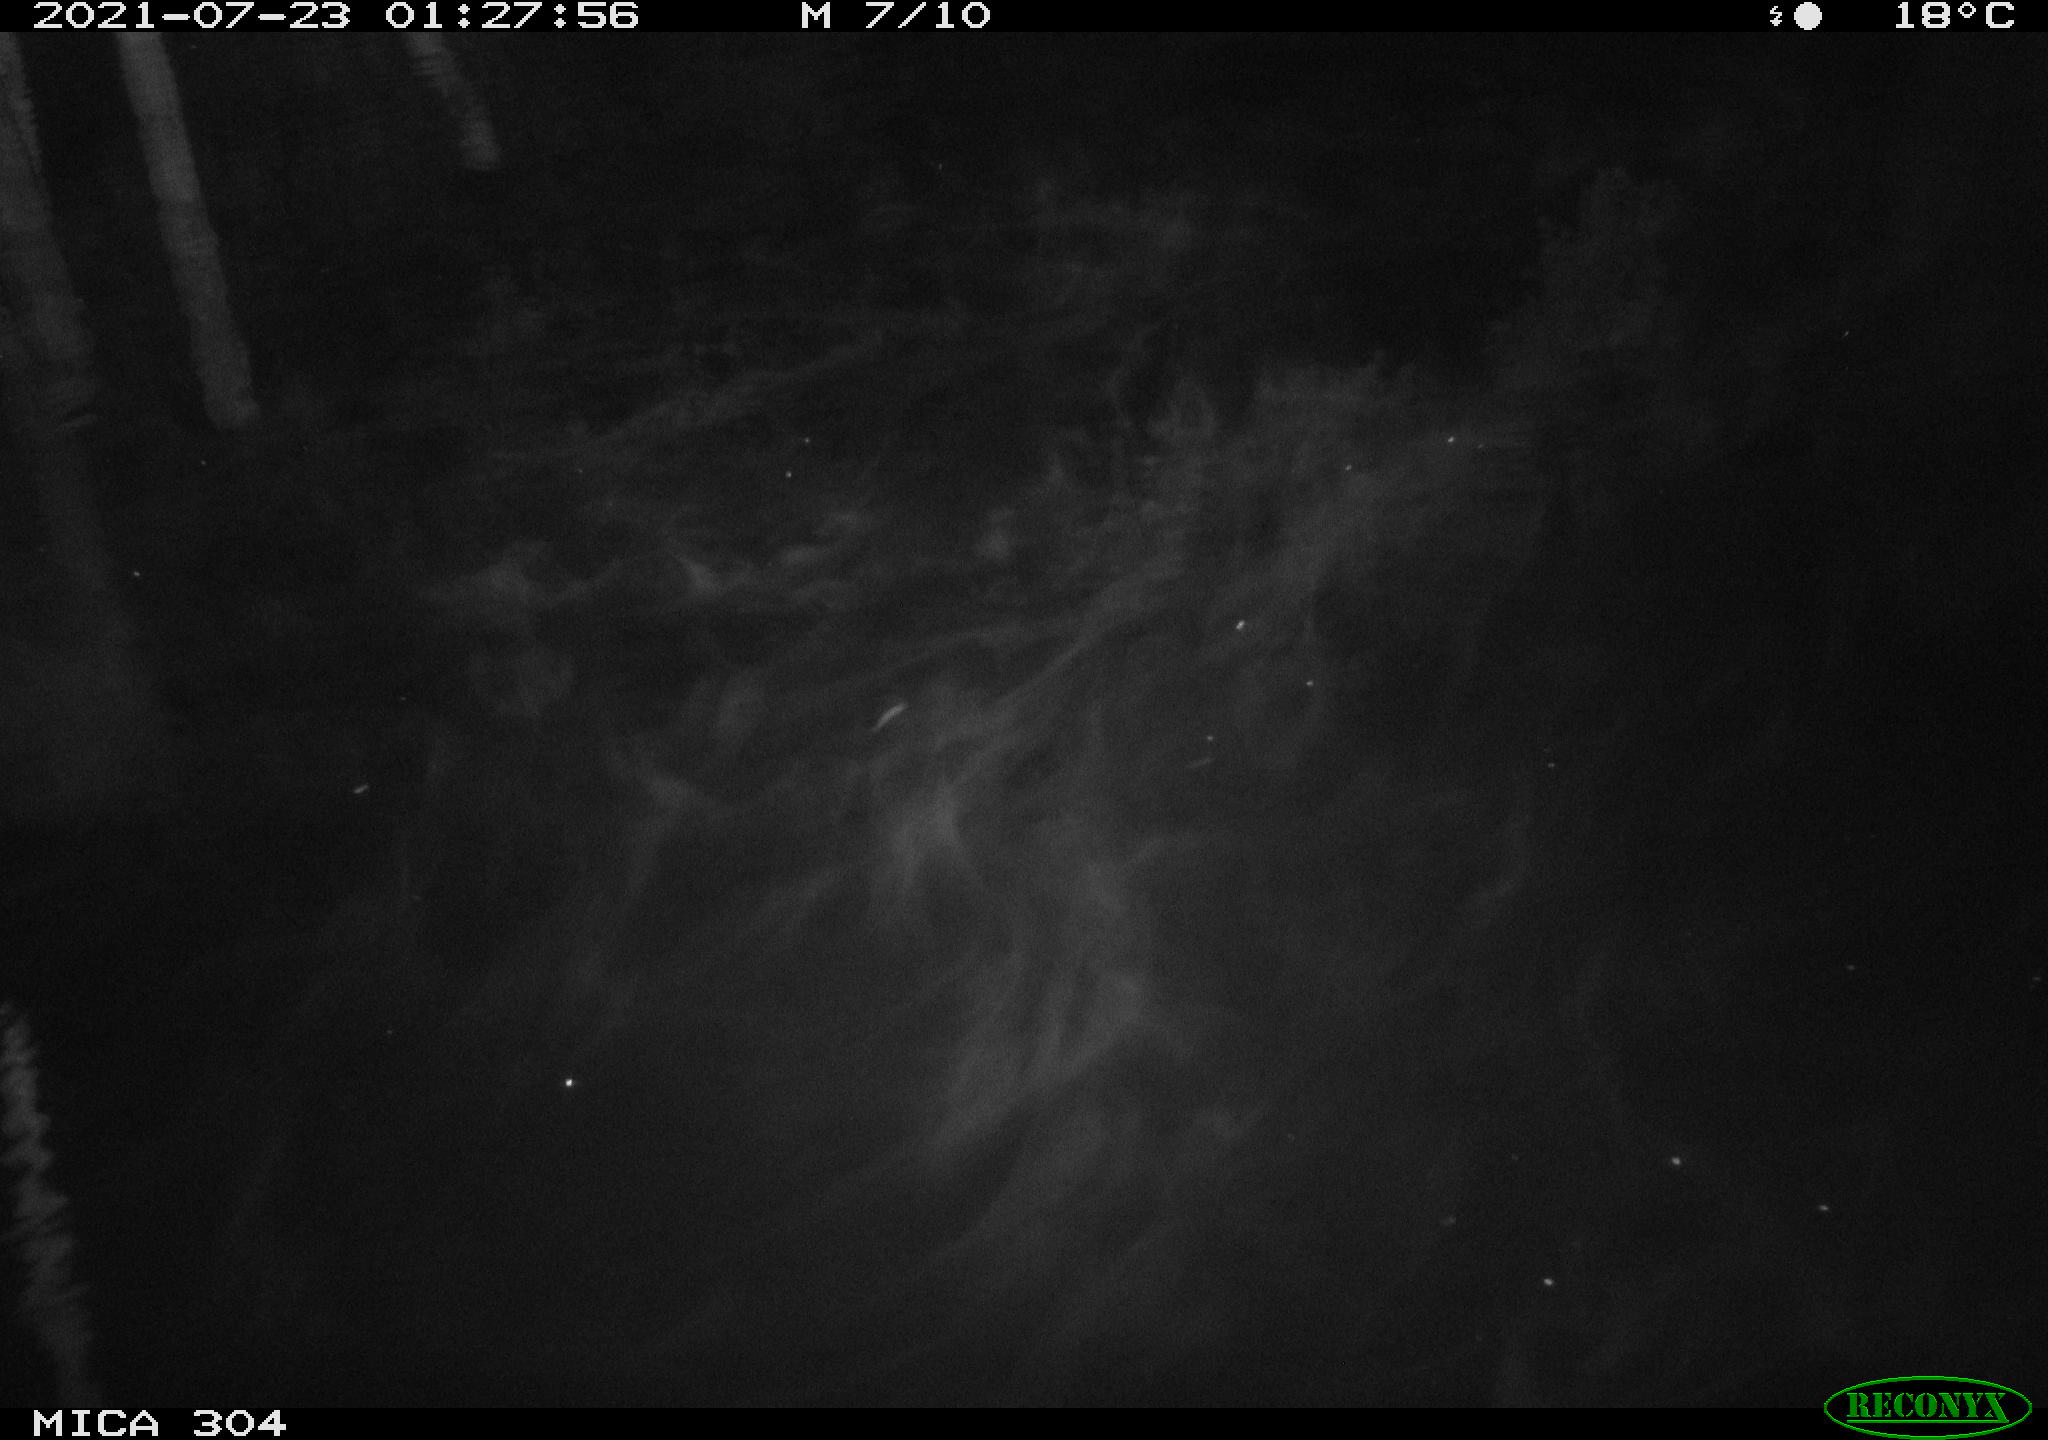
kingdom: Animalia
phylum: Chordata
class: Aves
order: Anseriformes
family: Anatidae
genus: Anas
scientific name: Anas platyrhynchos
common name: Mallard
